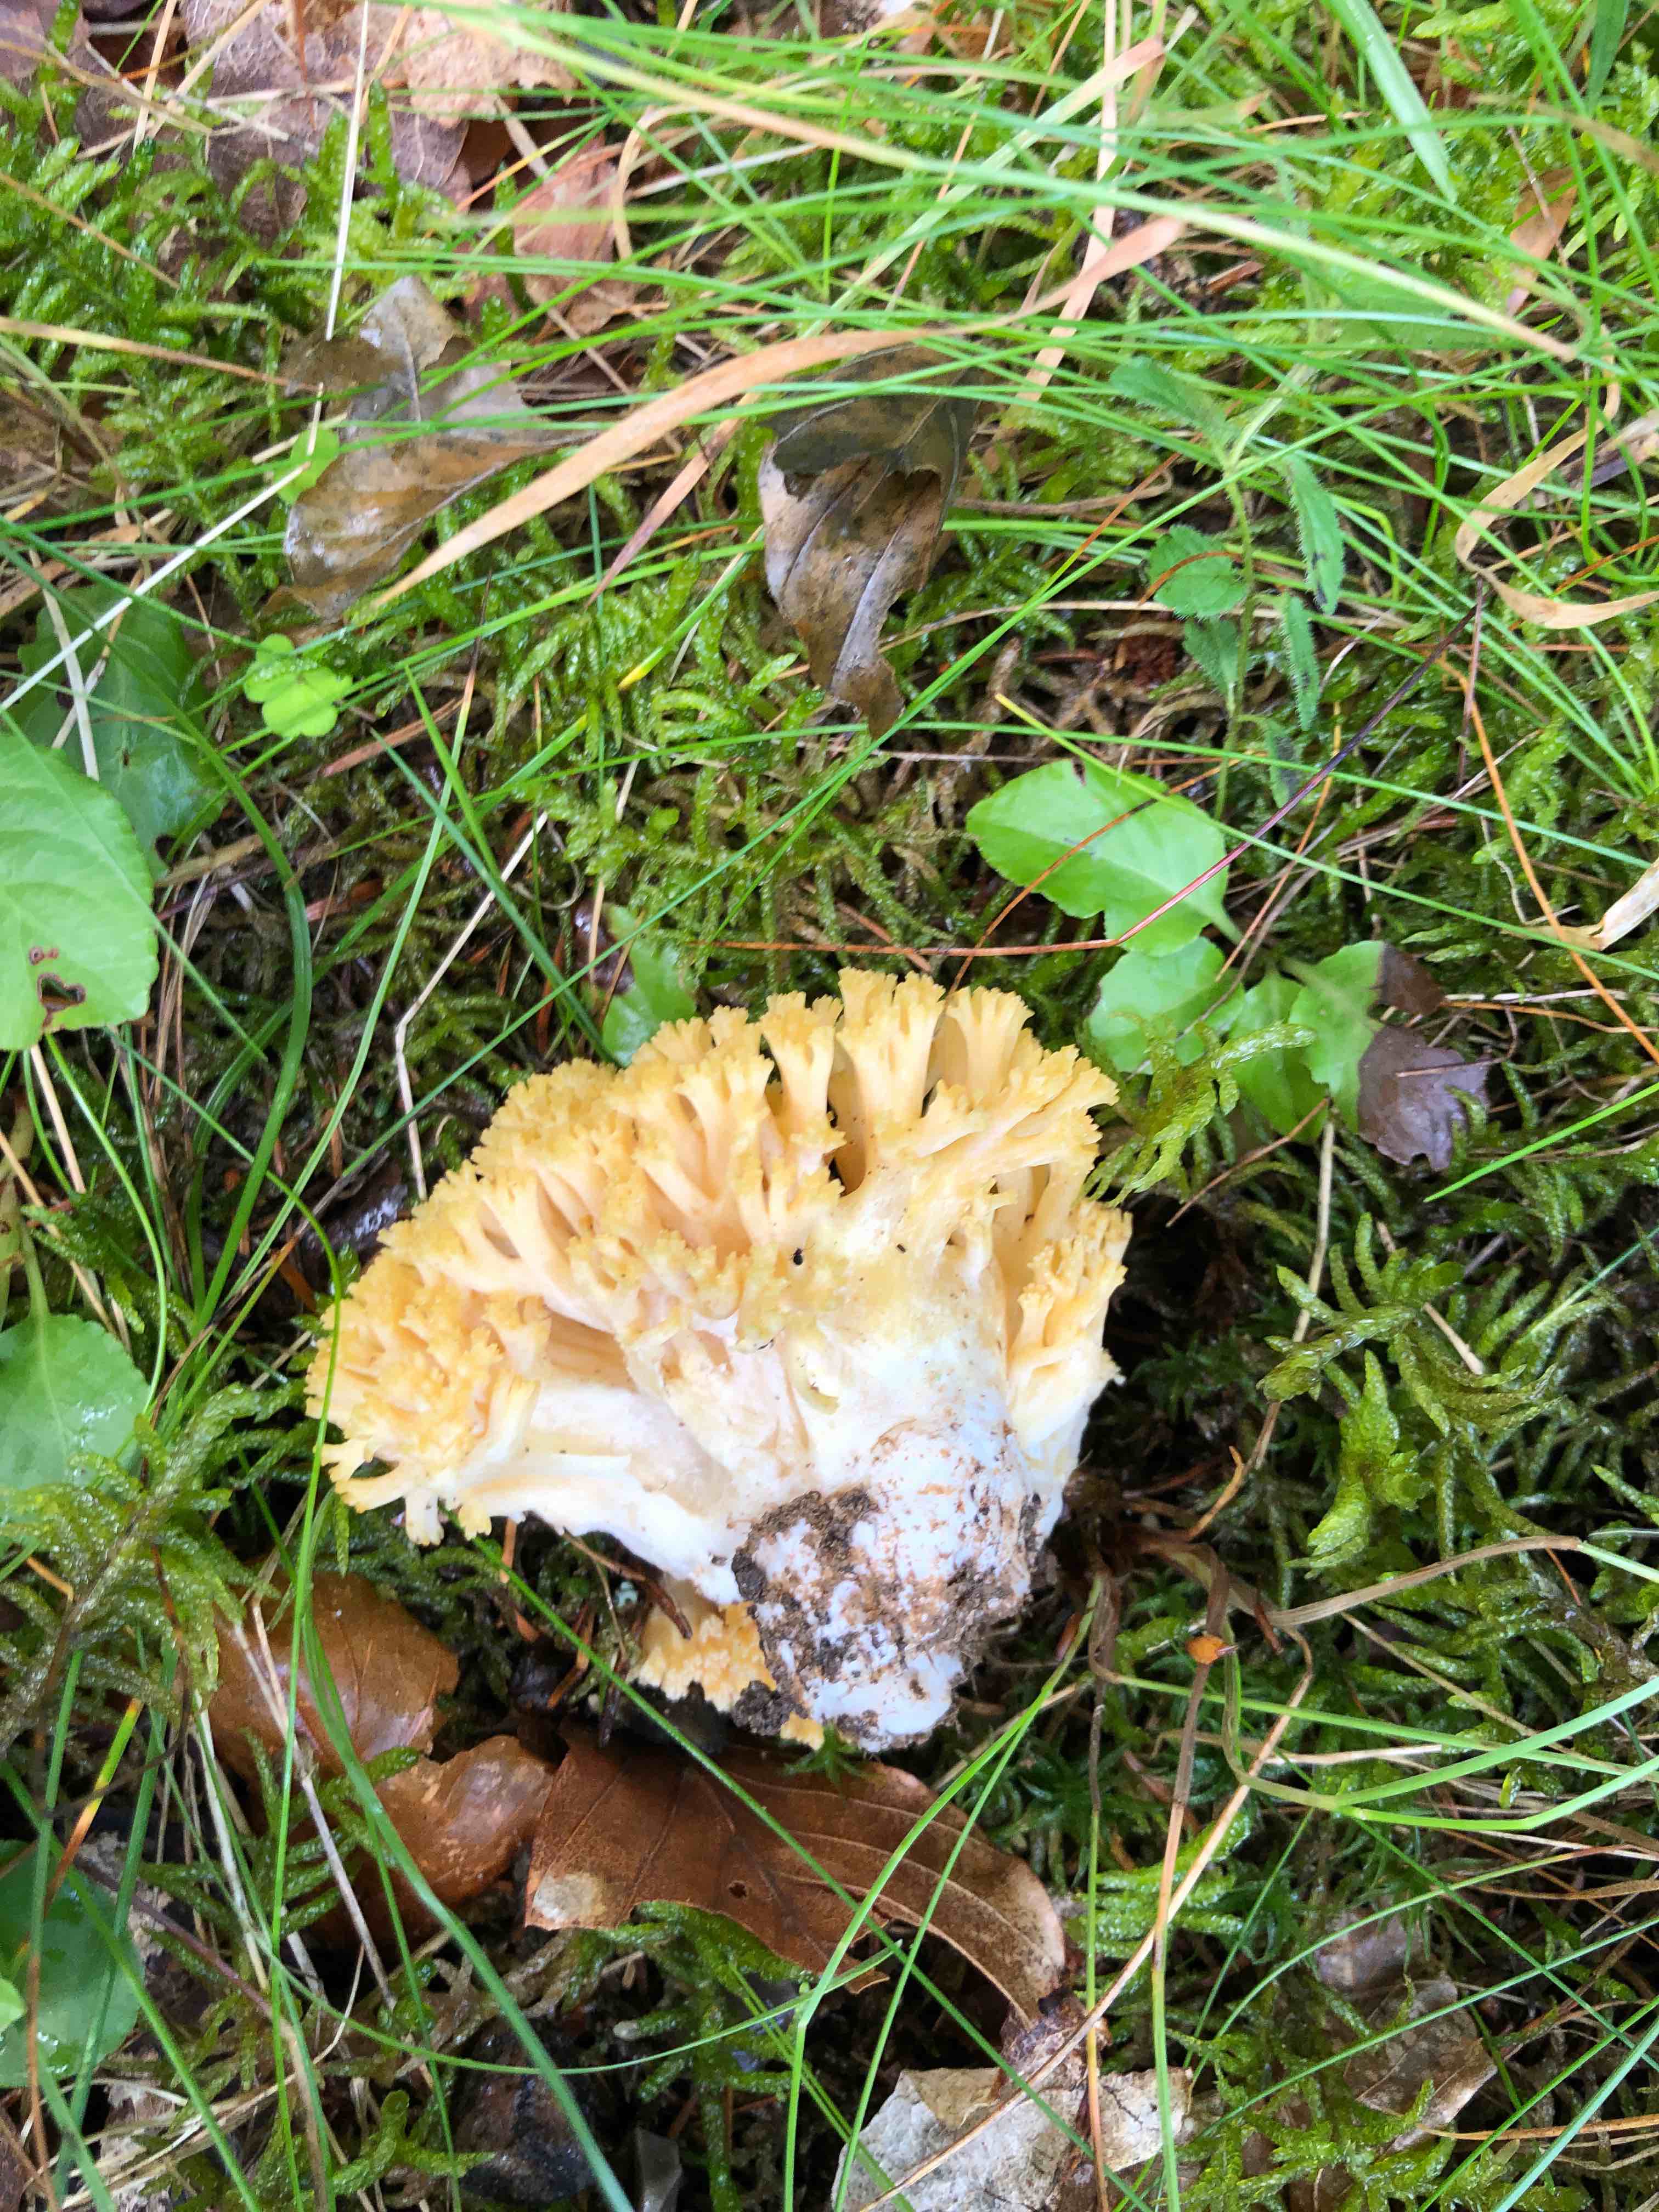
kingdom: Fungi
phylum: Basidiomycota
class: Agaricomycetes
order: Gomphales
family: Gomphaceae
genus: Ramaria
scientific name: Ramaria
